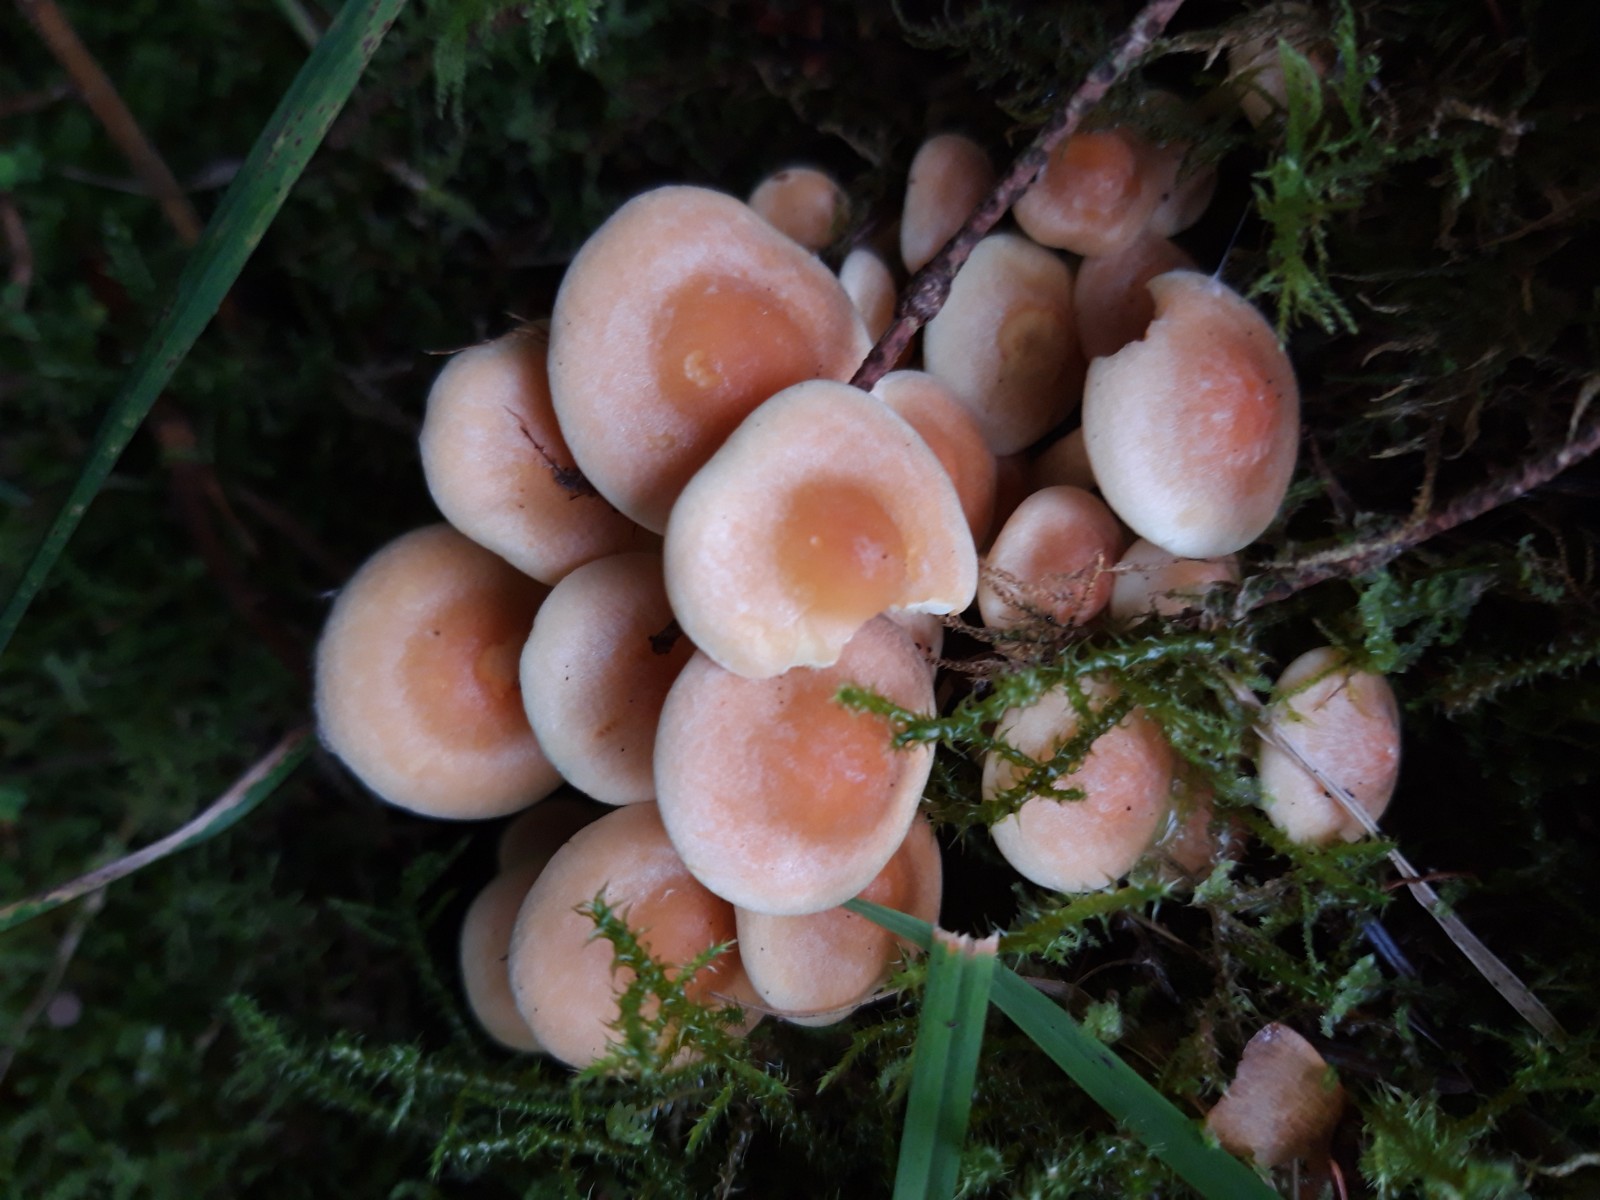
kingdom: Fungi
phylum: Basidiomycota
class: Agaricomycetes
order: Agaricales
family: Strophariaceae
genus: Hypholoma
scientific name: Hypholoma fasciculare
